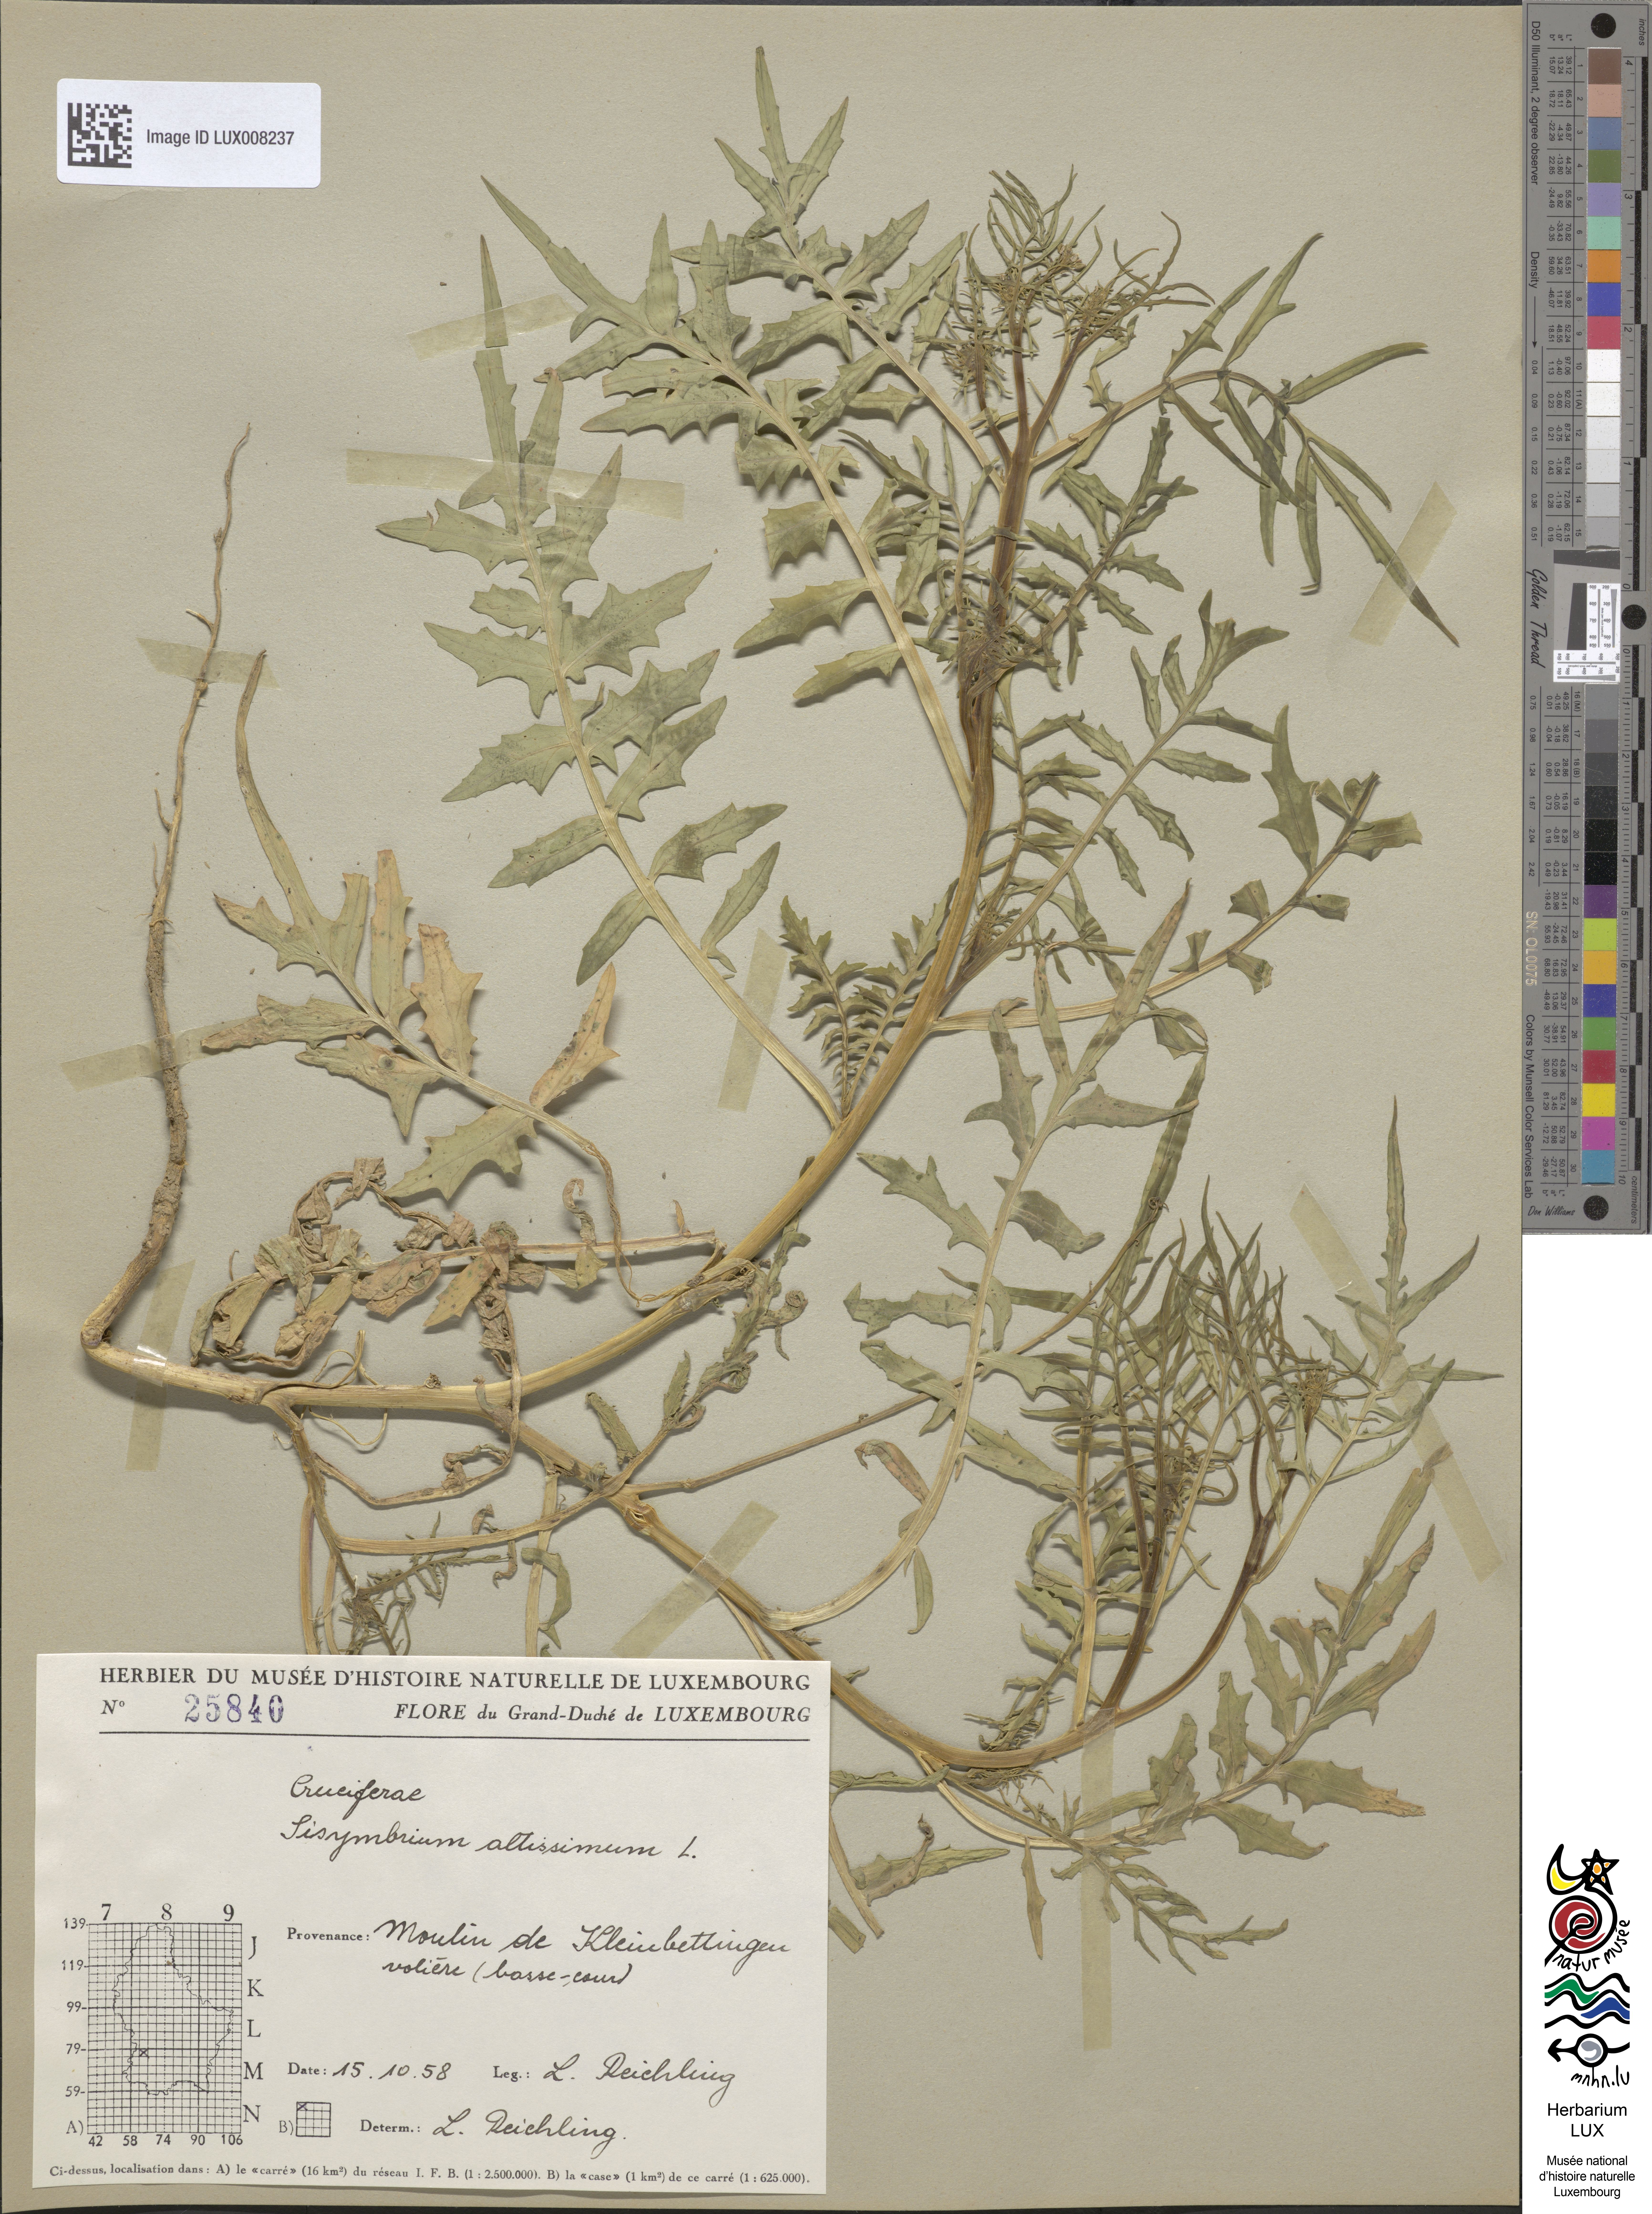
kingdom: Plantae
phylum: Tracheophyta
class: Magnoliopsida
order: Brassicales
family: Brassicaceae
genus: Sisymbrium
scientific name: Sisymbrium altissimum
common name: Tall rocket
